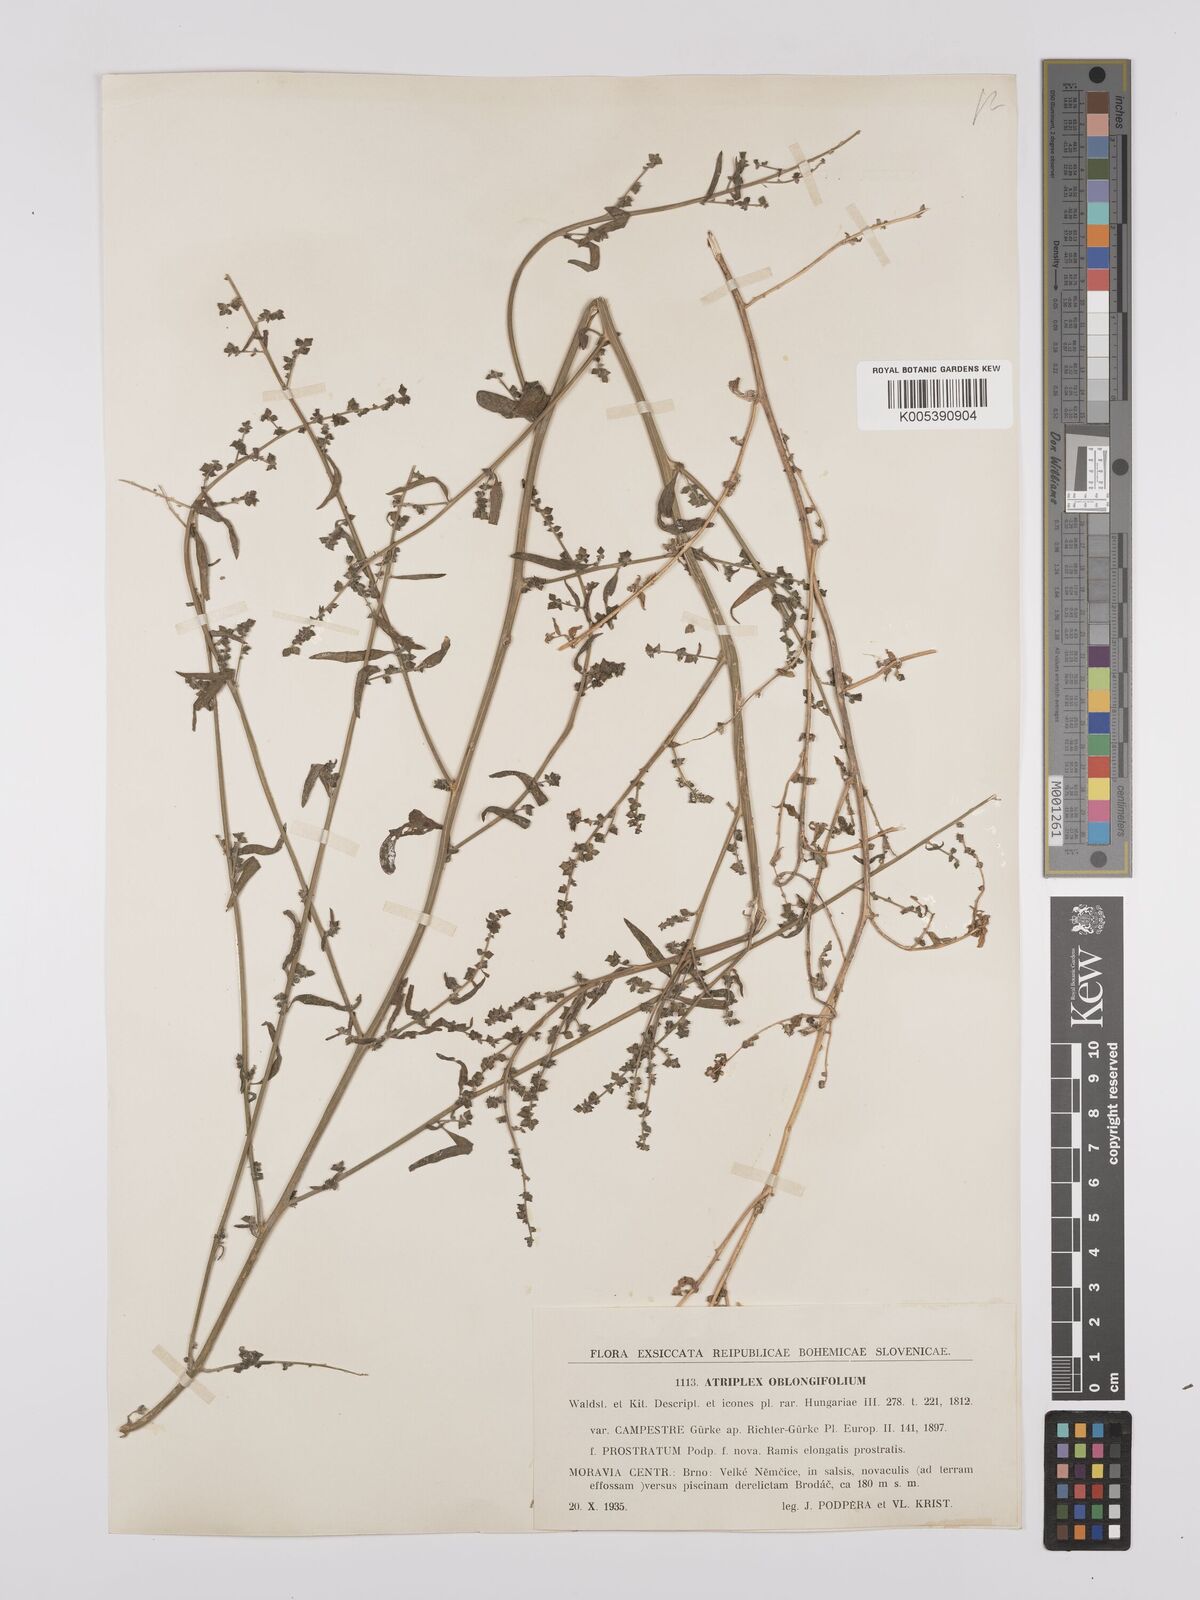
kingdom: Plantae
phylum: Tracheophyta
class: Magnoliopsida
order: Caryophyllales
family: Amaranthaceae
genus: Atriplex
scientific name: Atriplex
